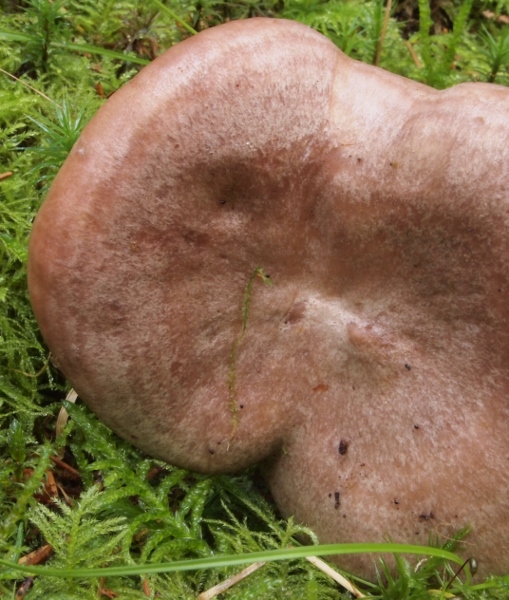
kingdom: Fungi
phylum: Basidiomycota
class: Agaricomycetes
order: Russulales
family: Russulaceae
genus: Lactarius
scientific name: Lactarius flexuosus
